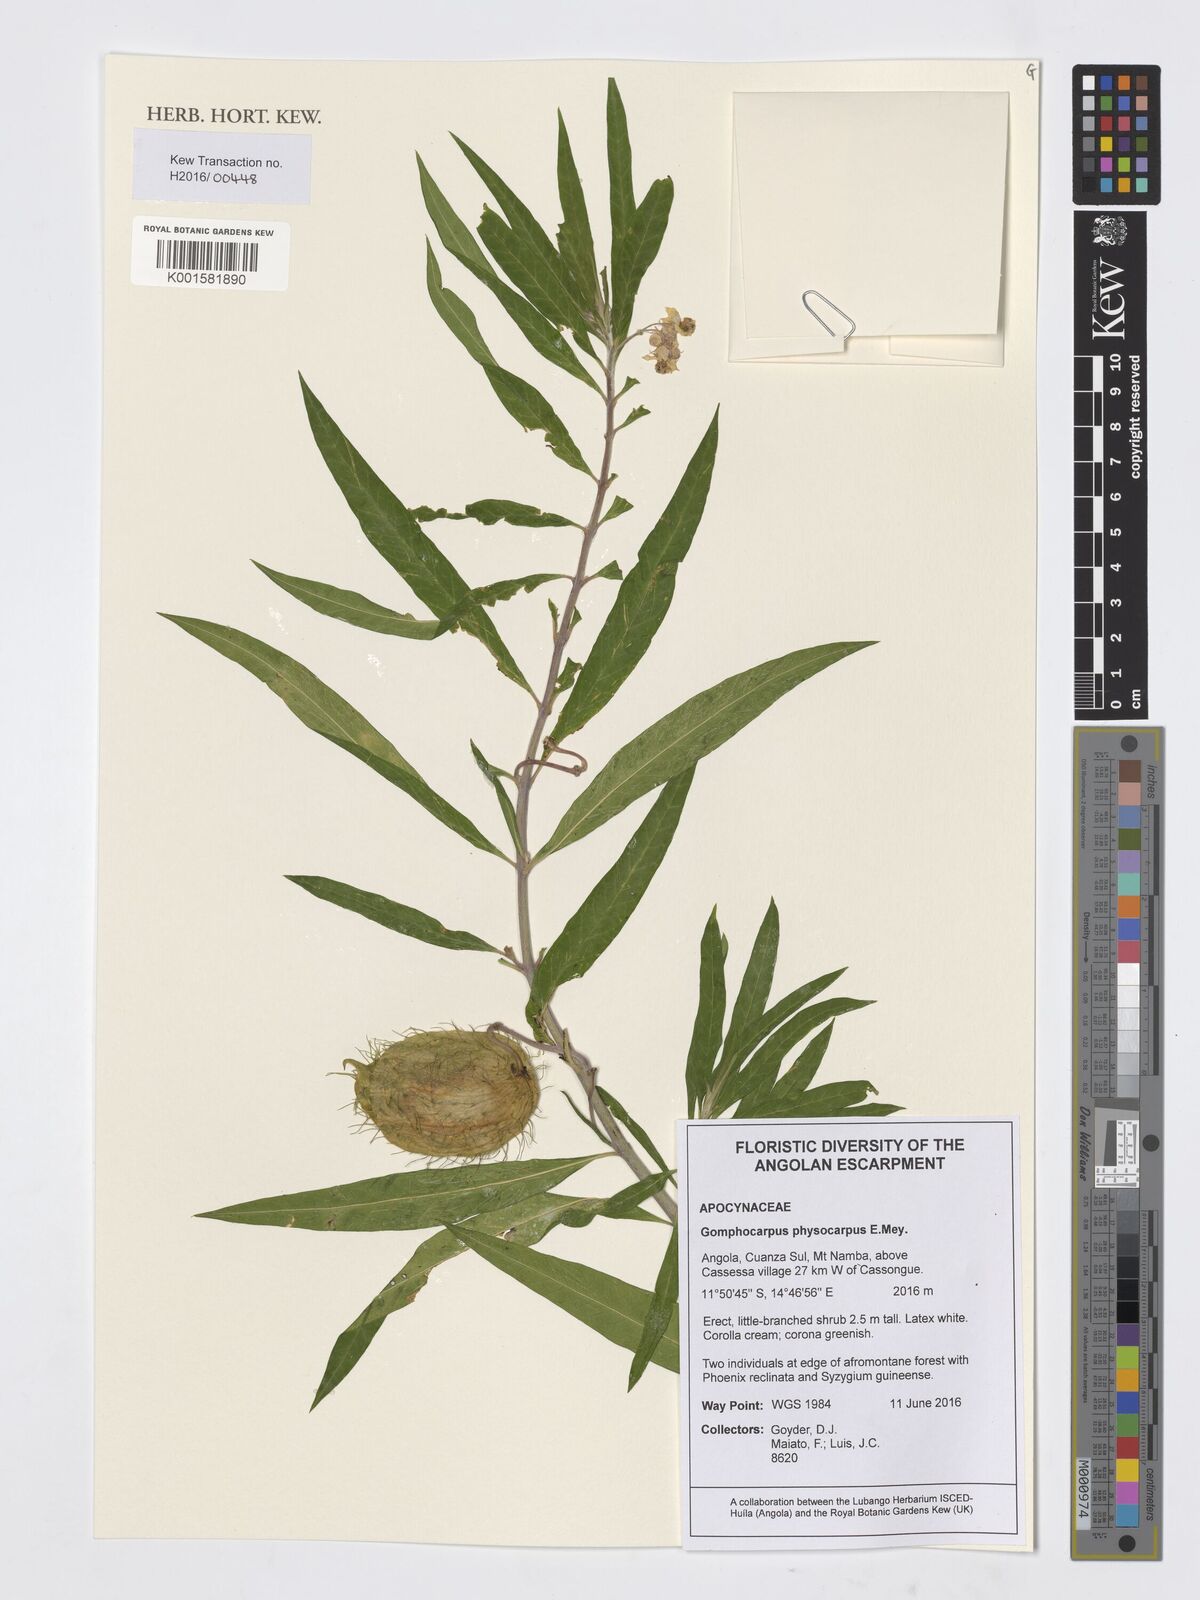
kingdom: Plantae
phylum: Tracheophyta
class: Magnoliopsida
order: Gentianales
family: Apocynaceae
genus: Gomphocarpus
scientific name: Gomphocarpus physocarpus
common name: Balloon cotton bush
